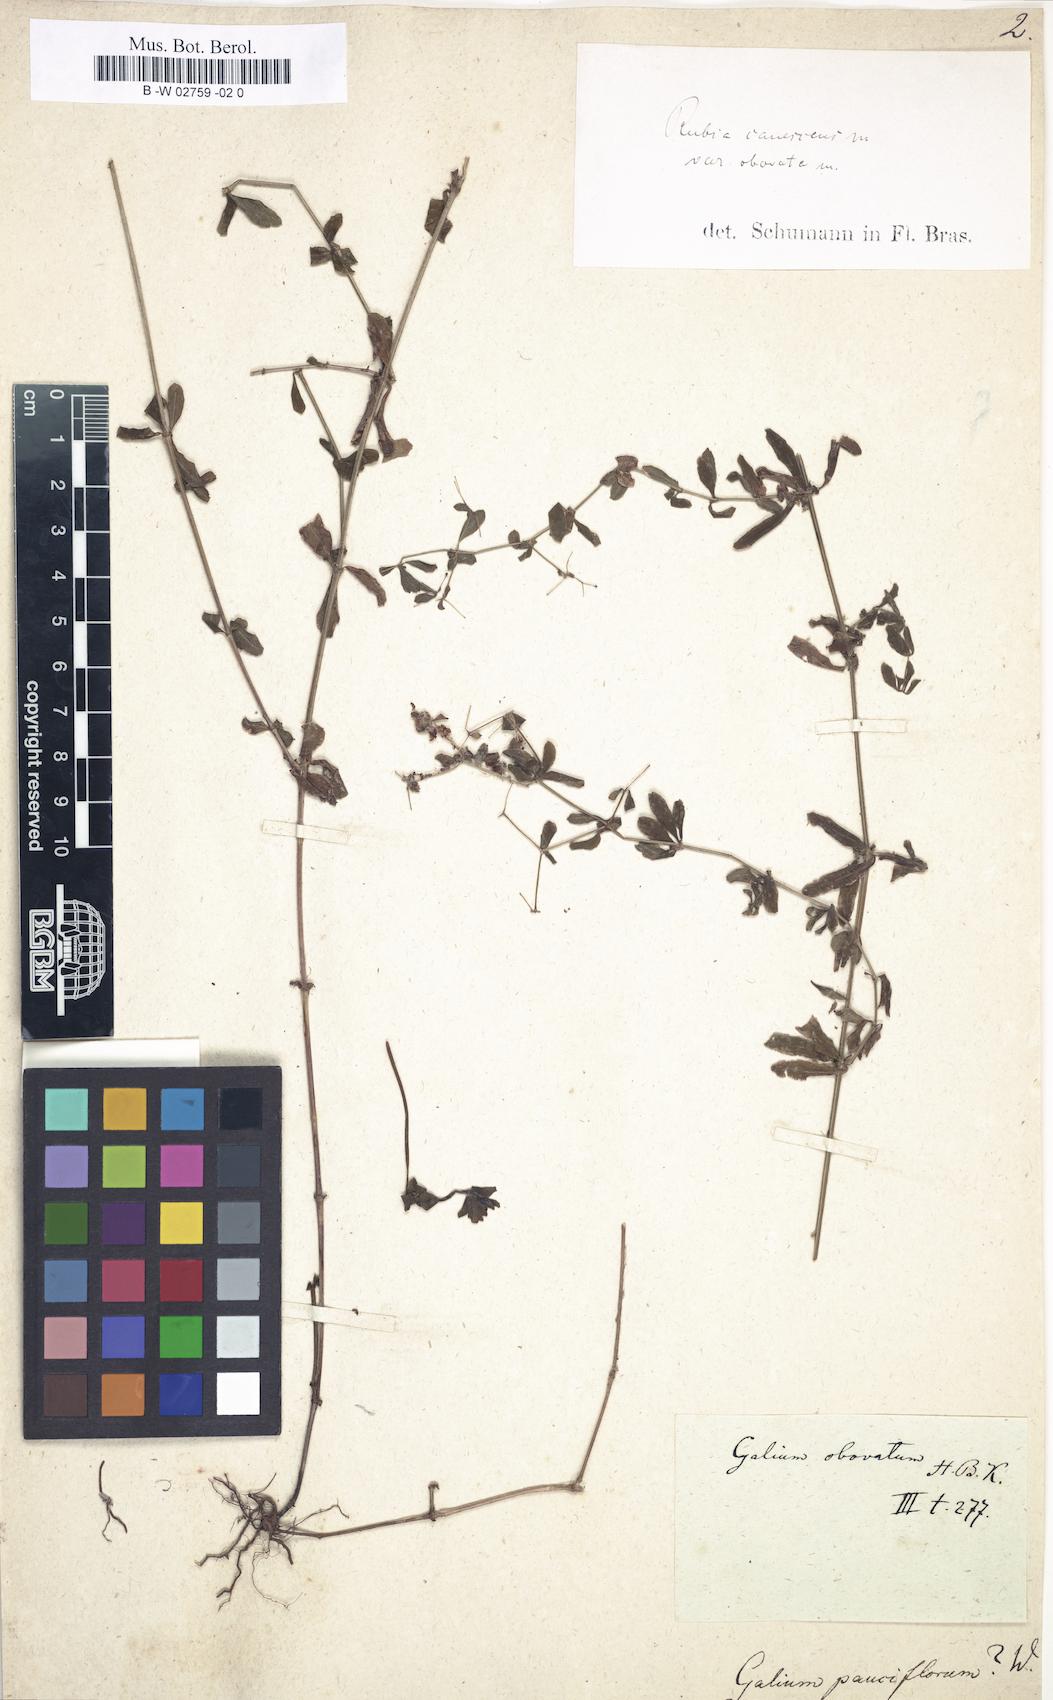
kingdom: Plantae
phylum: Tracheophyta
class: Magnoliopsida
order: Gentianales
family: Rubiaceae
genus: Galium
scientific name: Galium
